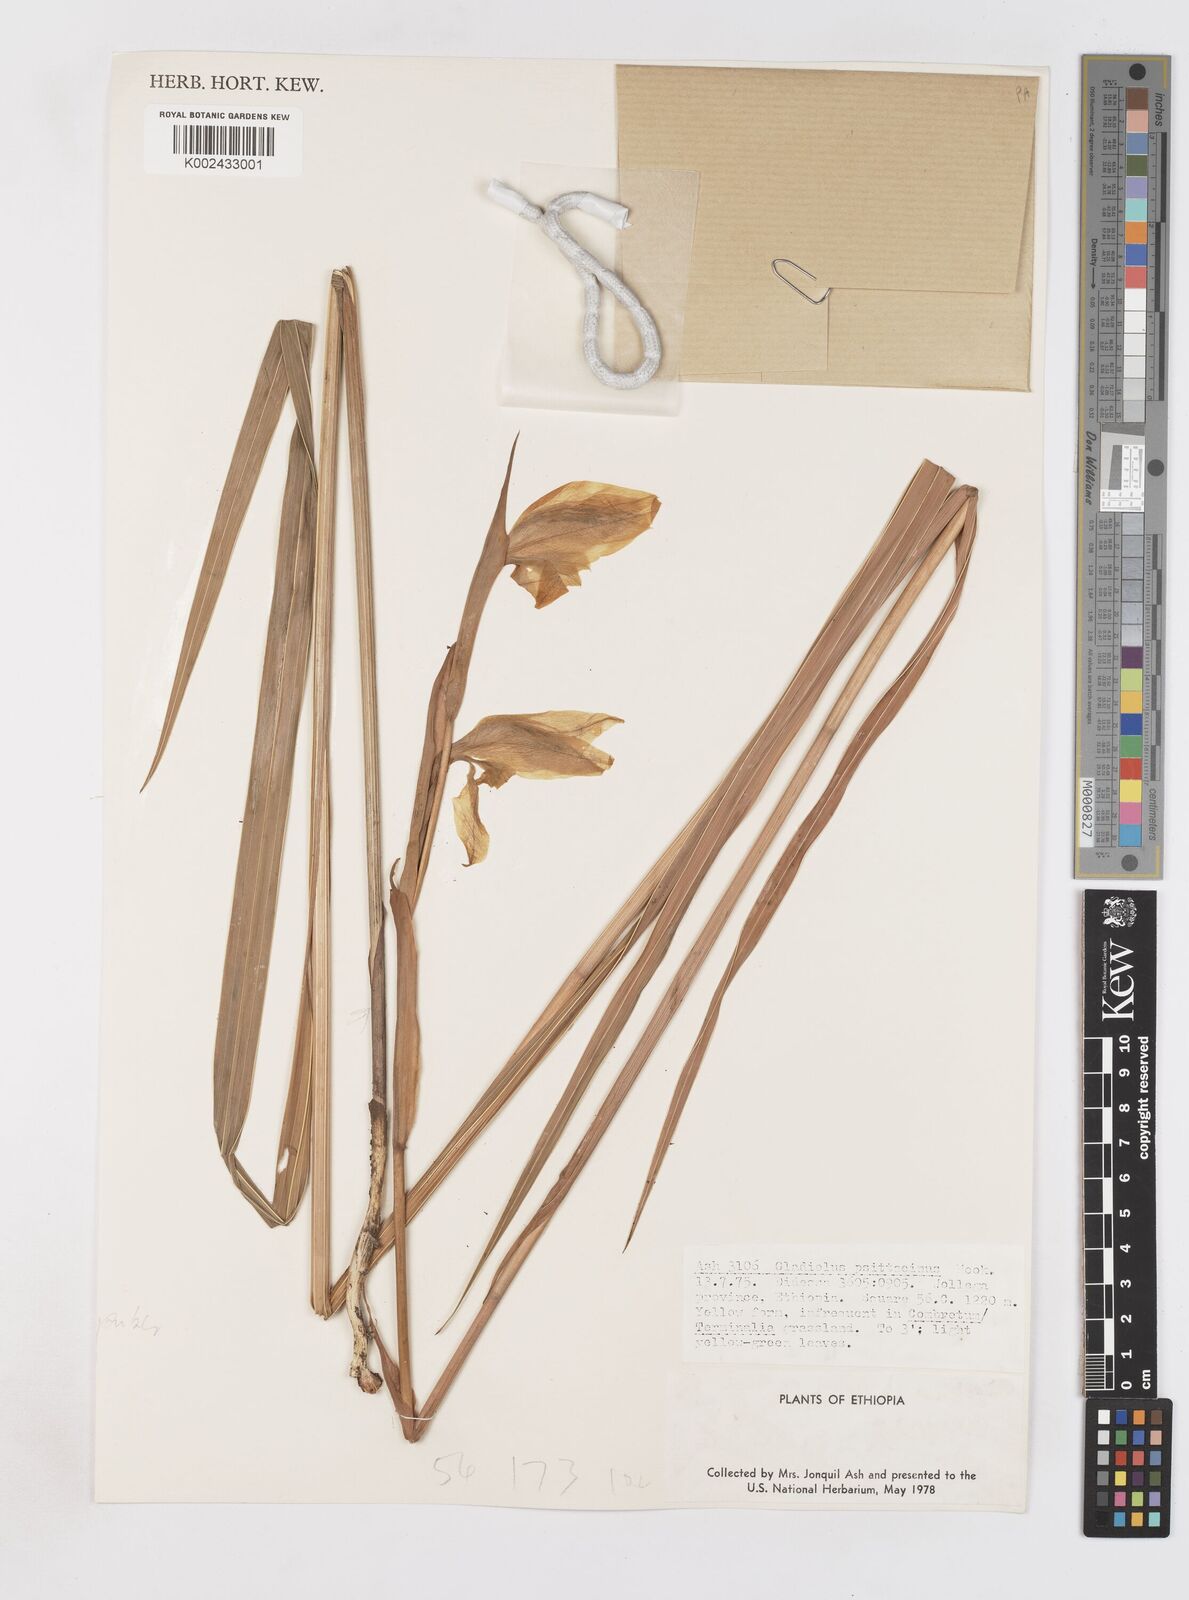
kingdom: Plantae
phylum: Tracheophyta
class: Liliopsida
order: Asparagales
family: Iridaceae
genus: Gladiolus
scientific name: Gladiolus dalenii
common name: Cornflag
